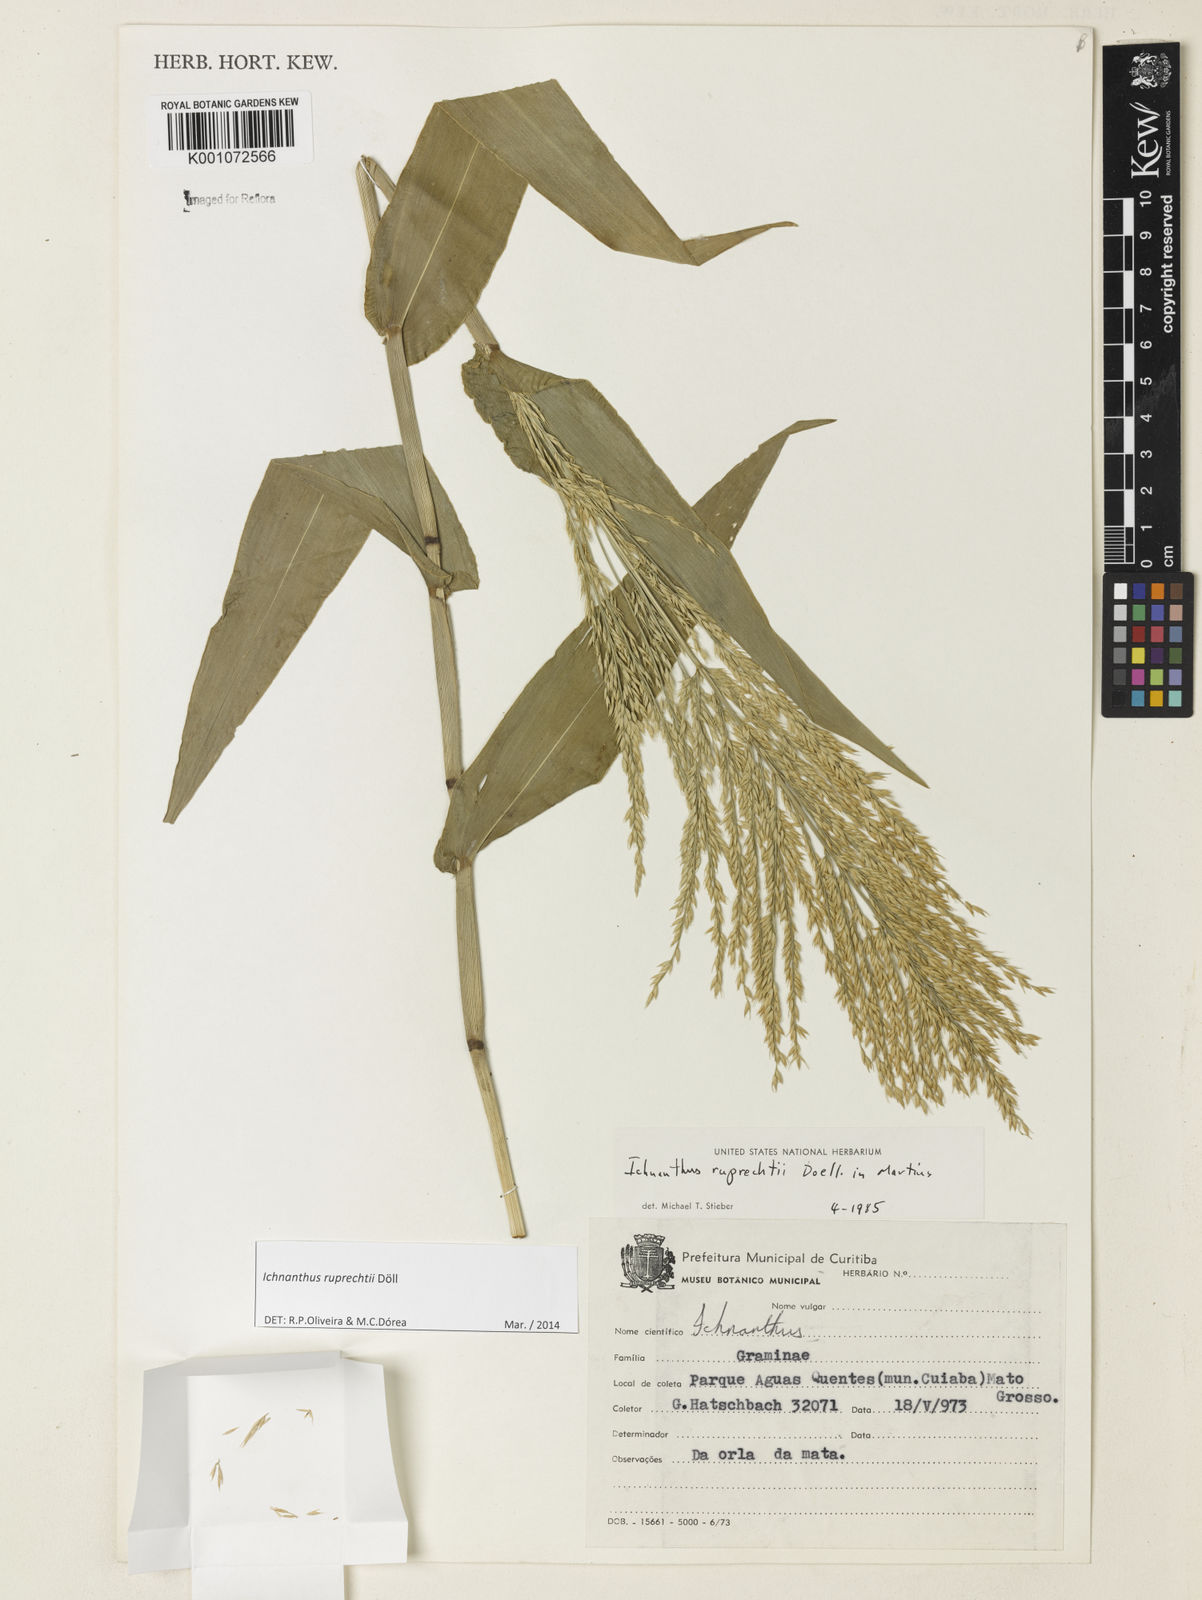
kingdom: Plantae
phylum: Tracheophyta
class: Liliopsida
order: Poales
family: Poaceae
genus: Ichnanthus
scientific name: Ichnanthus
